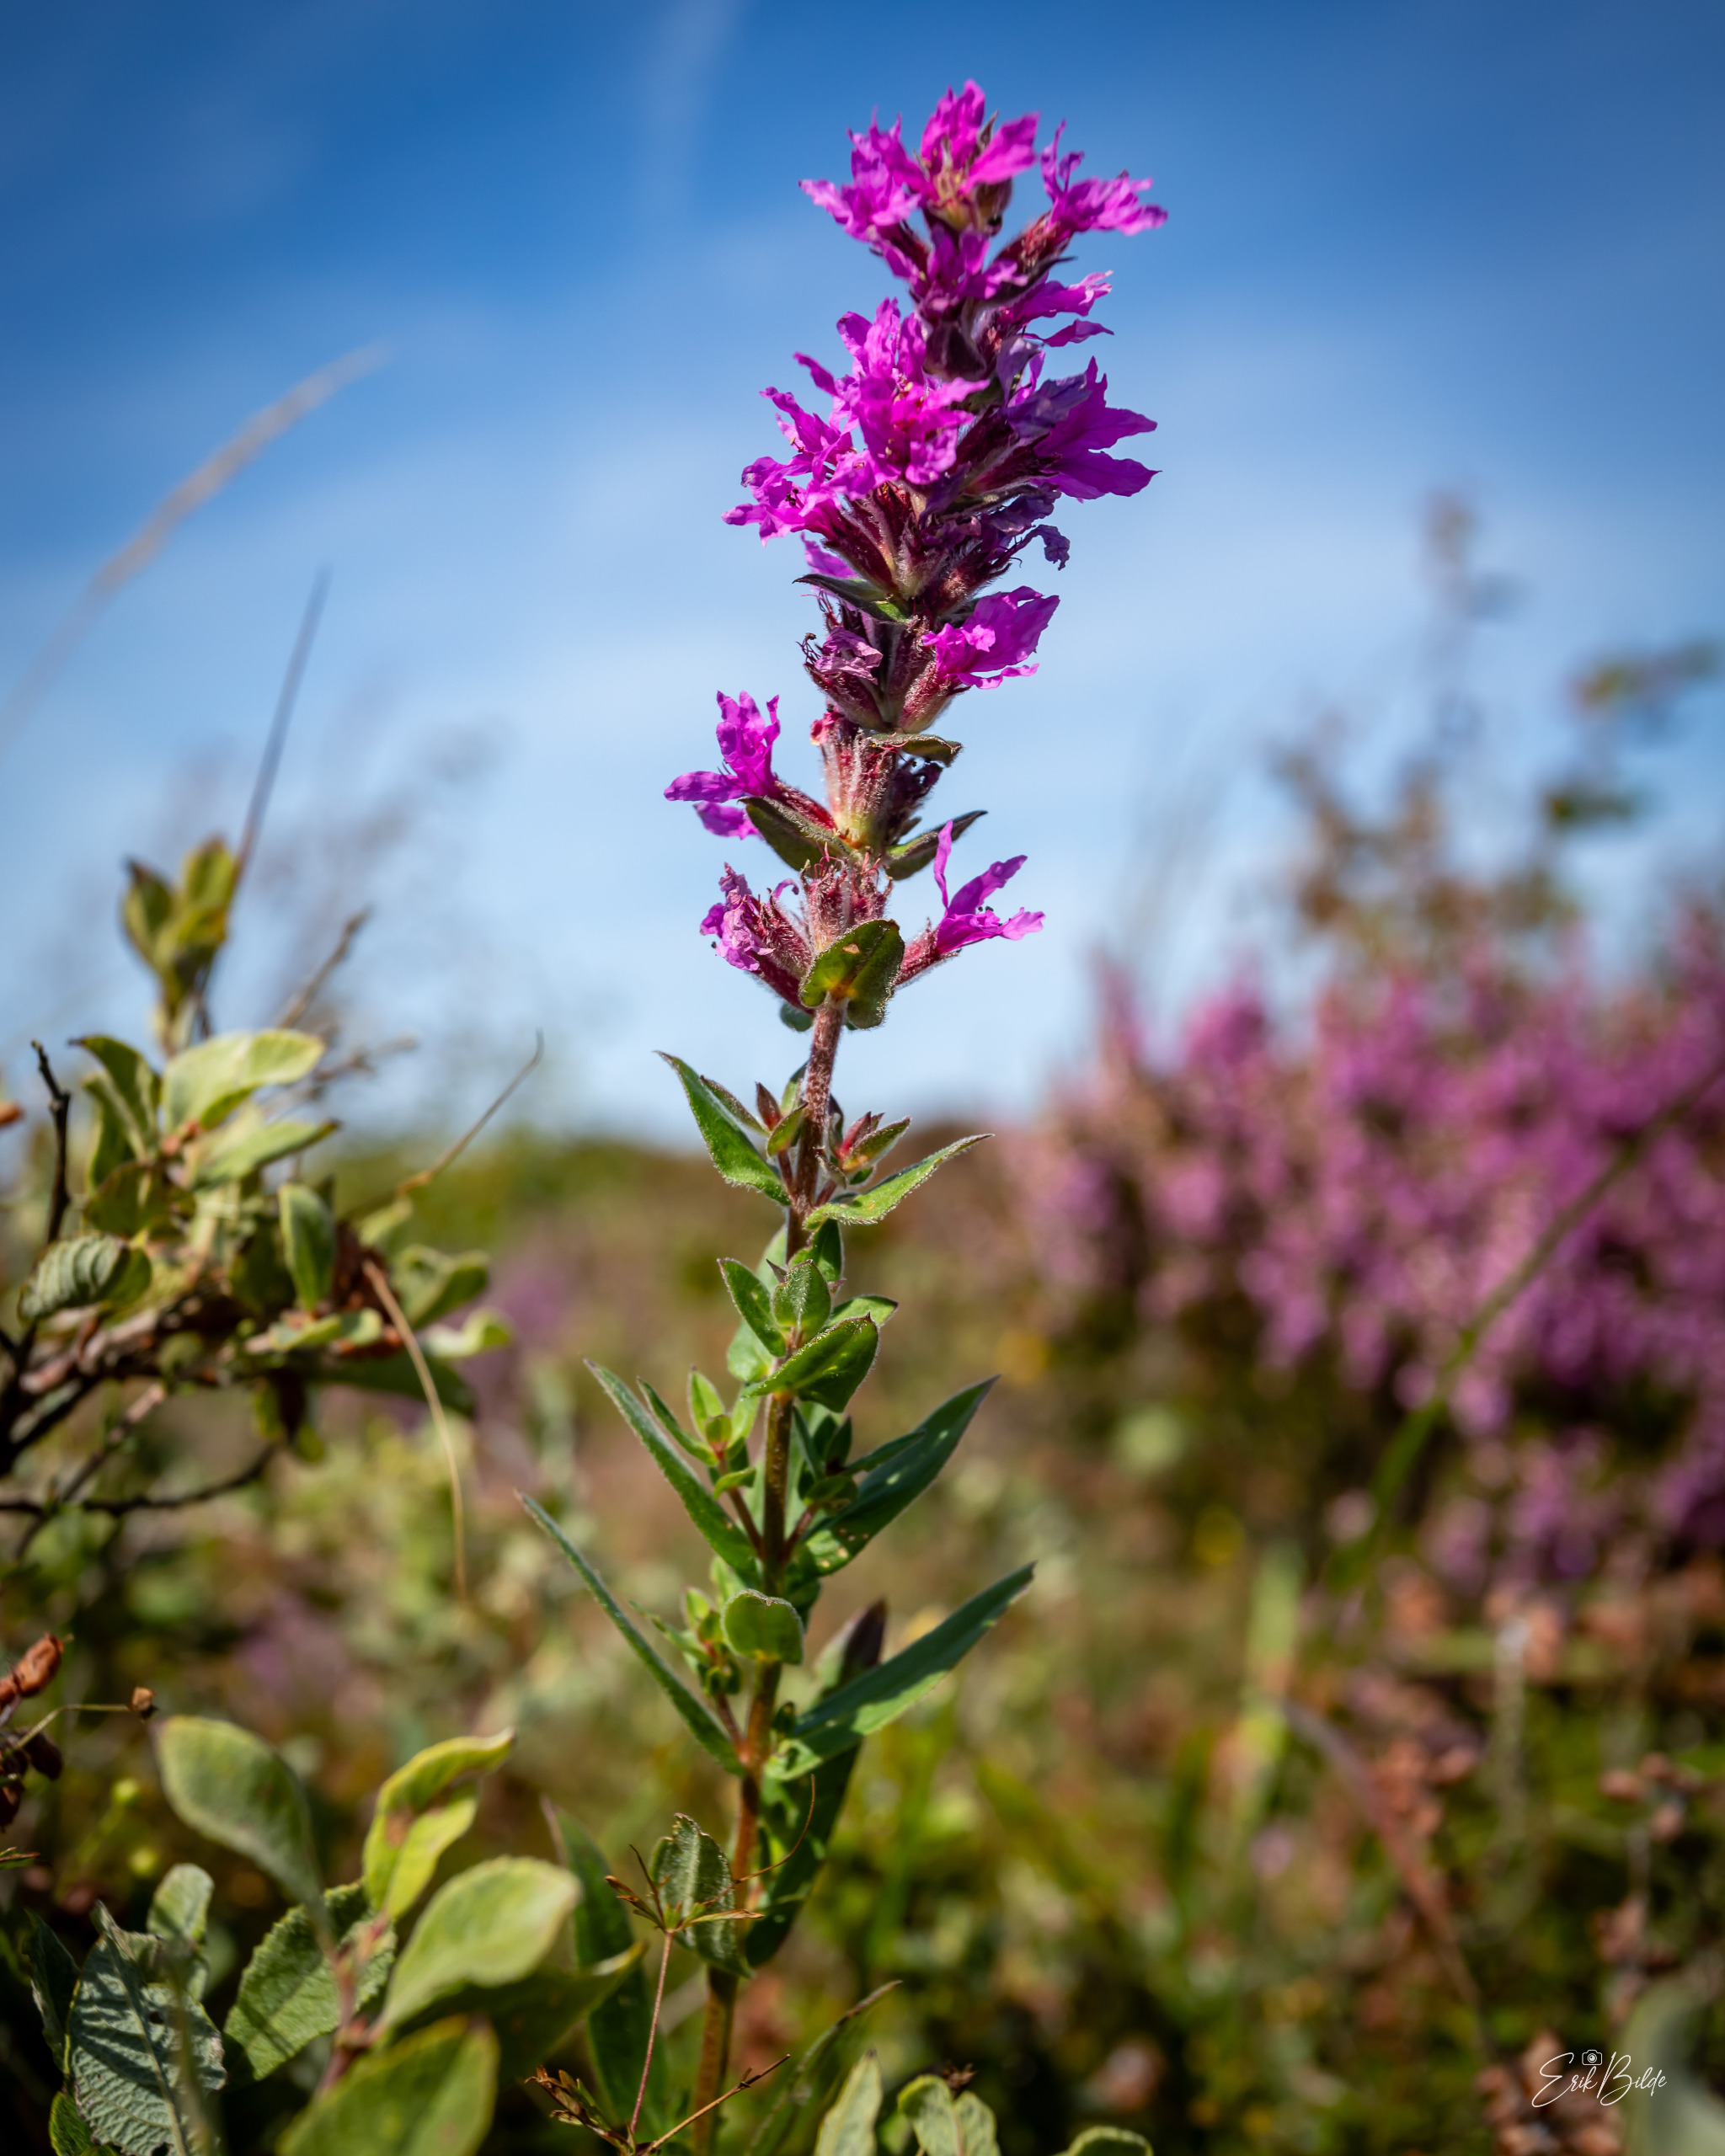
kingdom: Plantae
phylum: Tracheophyta
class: Magnoliopsida
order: Myrtales
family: Lythraceae
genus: Lythrum
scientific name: Lythrum salicaria
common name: Kattehale
